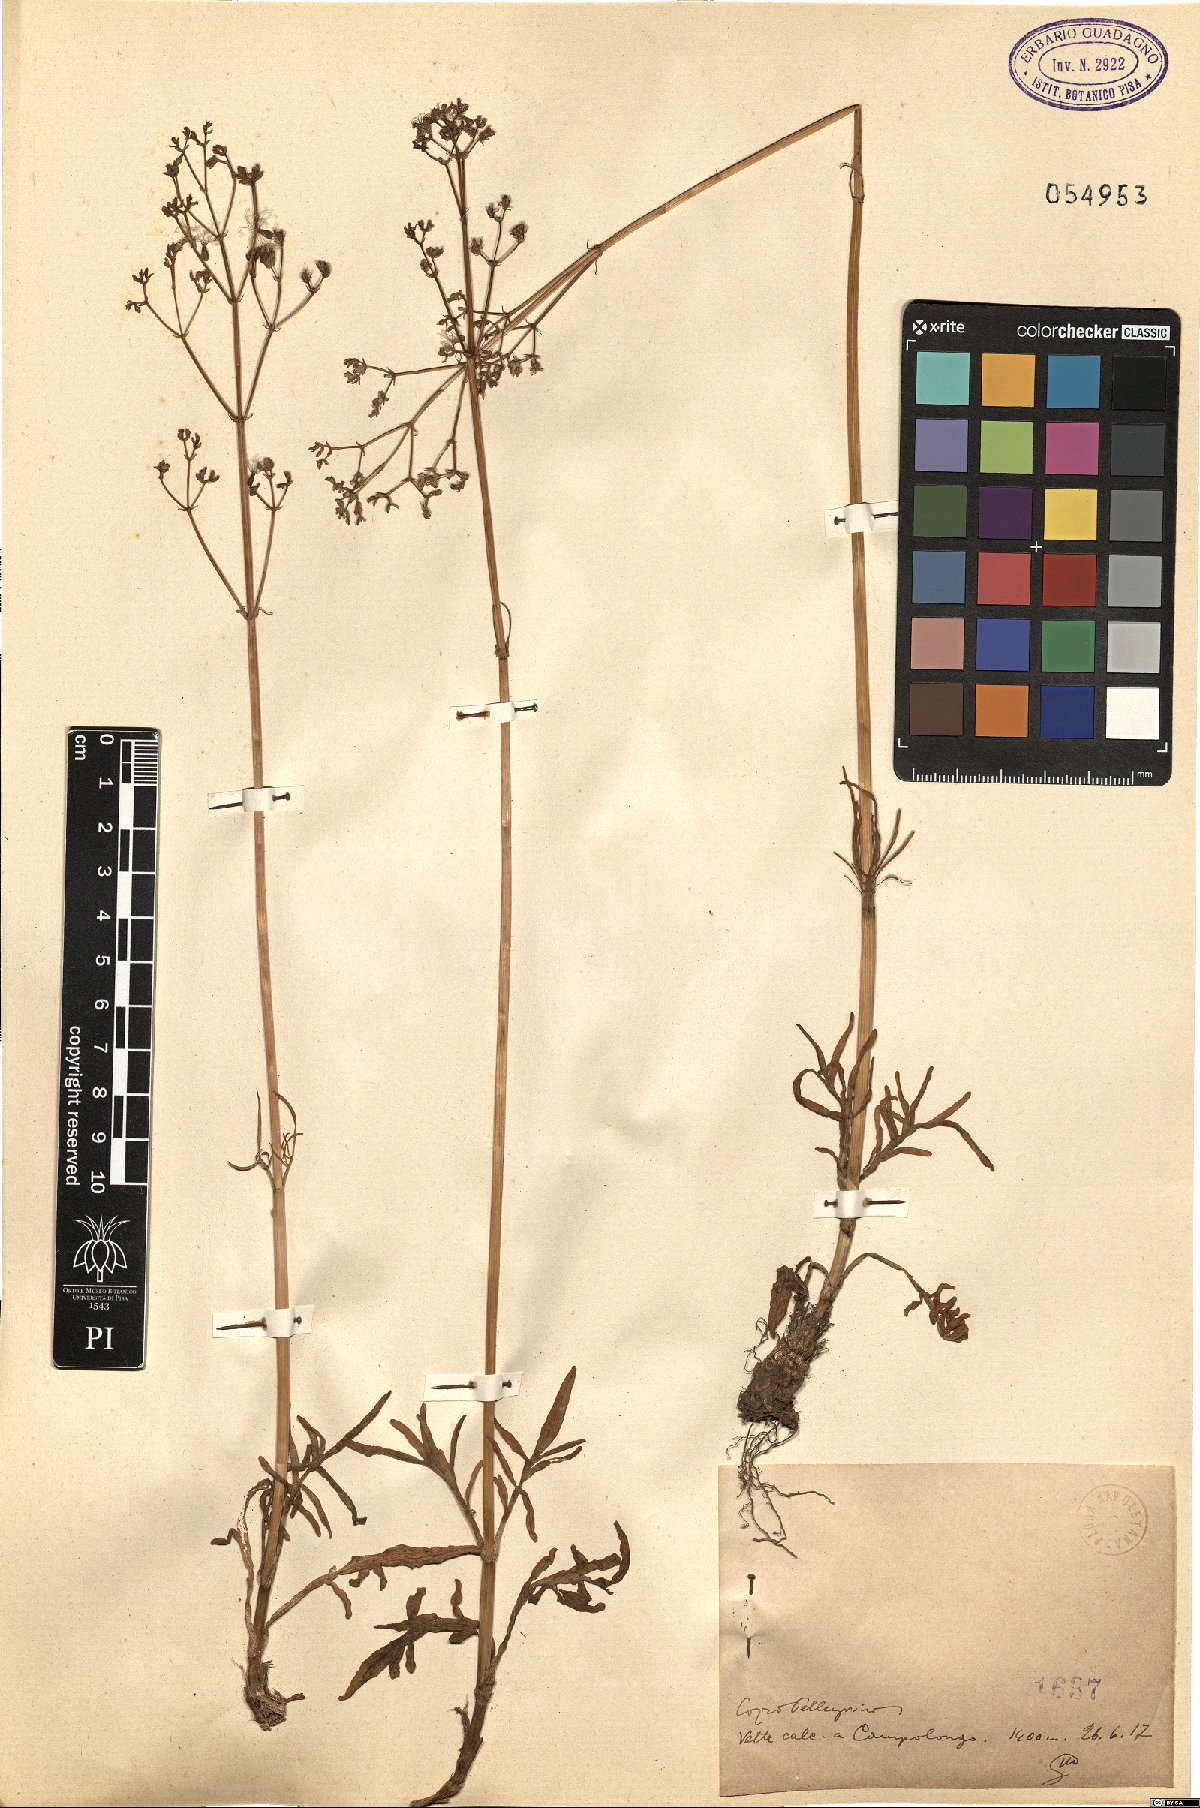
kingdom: Plantae
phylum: Tracheophyta
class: Magnoliopsida
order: Dipsacales
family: Caprifoliaceae
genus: Valeriana
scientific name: Valeriana
